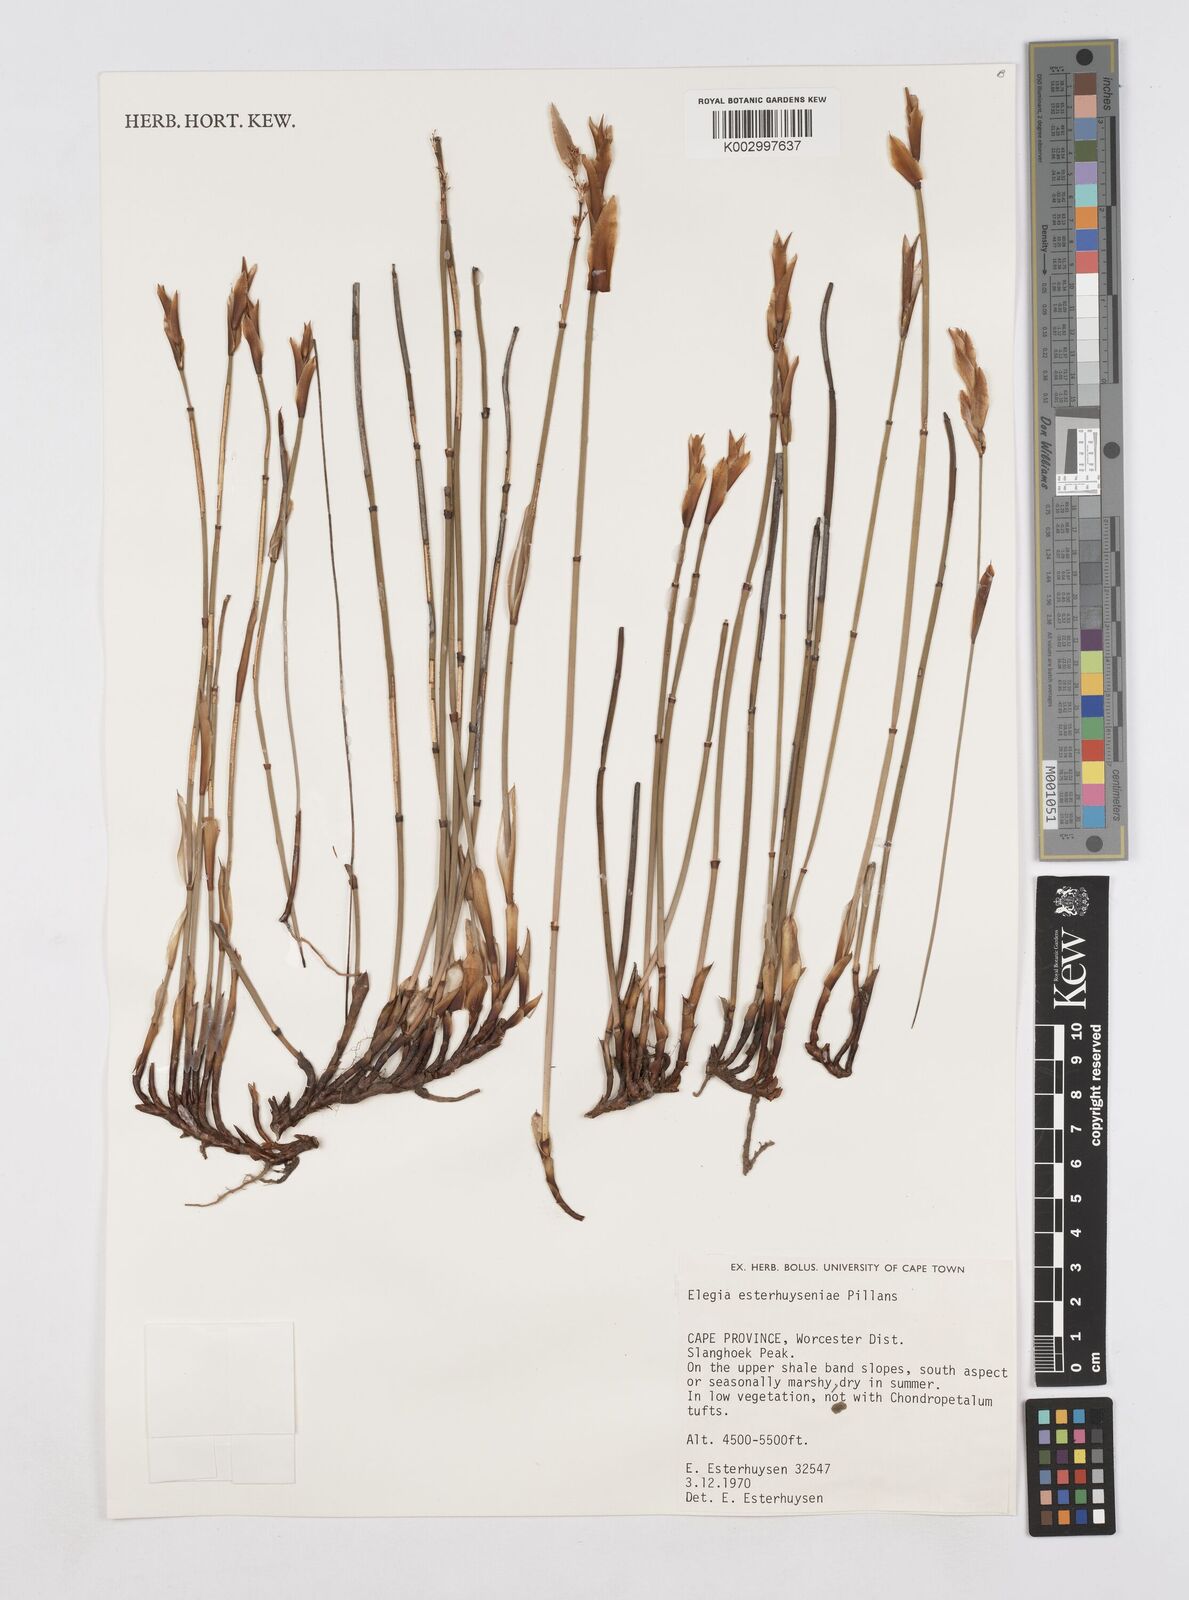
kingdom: Plantae
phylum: Tracheophyta
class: Liliopsida
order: Poales
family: Restionaceae
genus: Elegia
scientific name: Elegia esterhuyseniae
